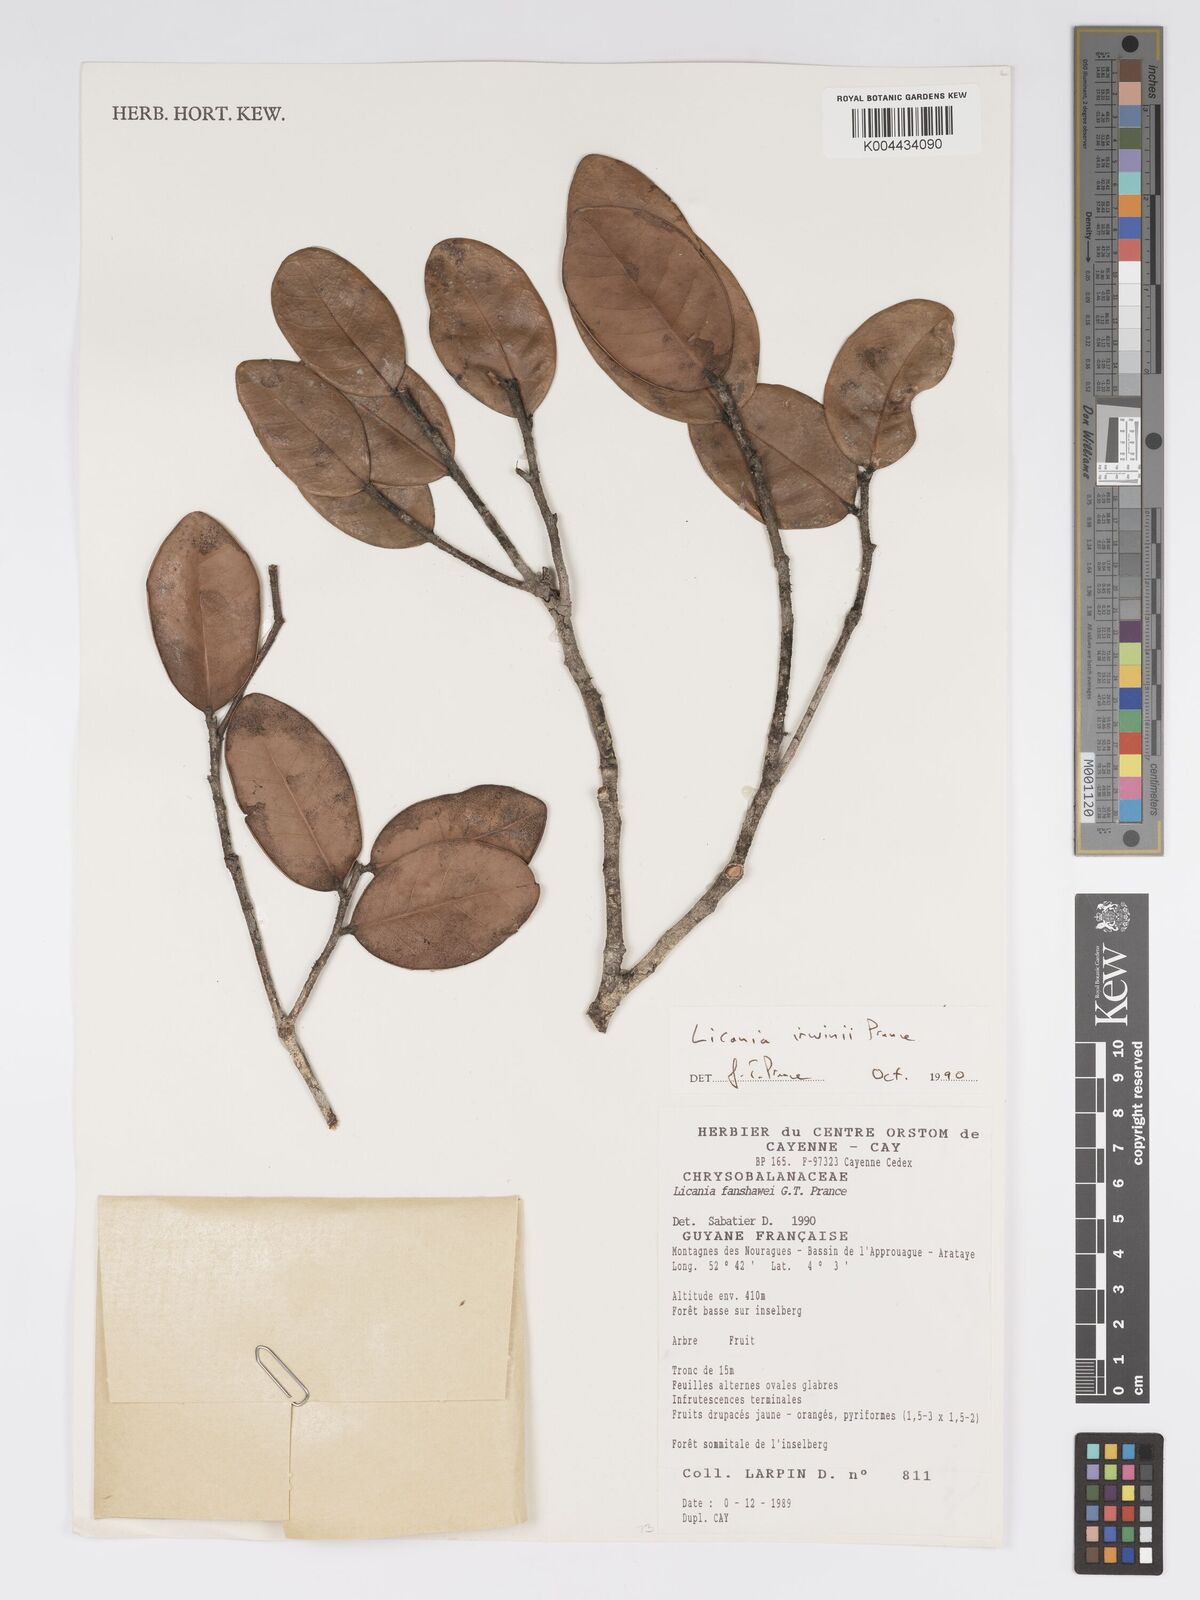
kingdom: Plantae
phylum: Tracheophyta
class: Magnoliopsida
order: Malpighiales
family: Chrysobalanaceae
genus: Licania
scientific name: Licania irwinii
